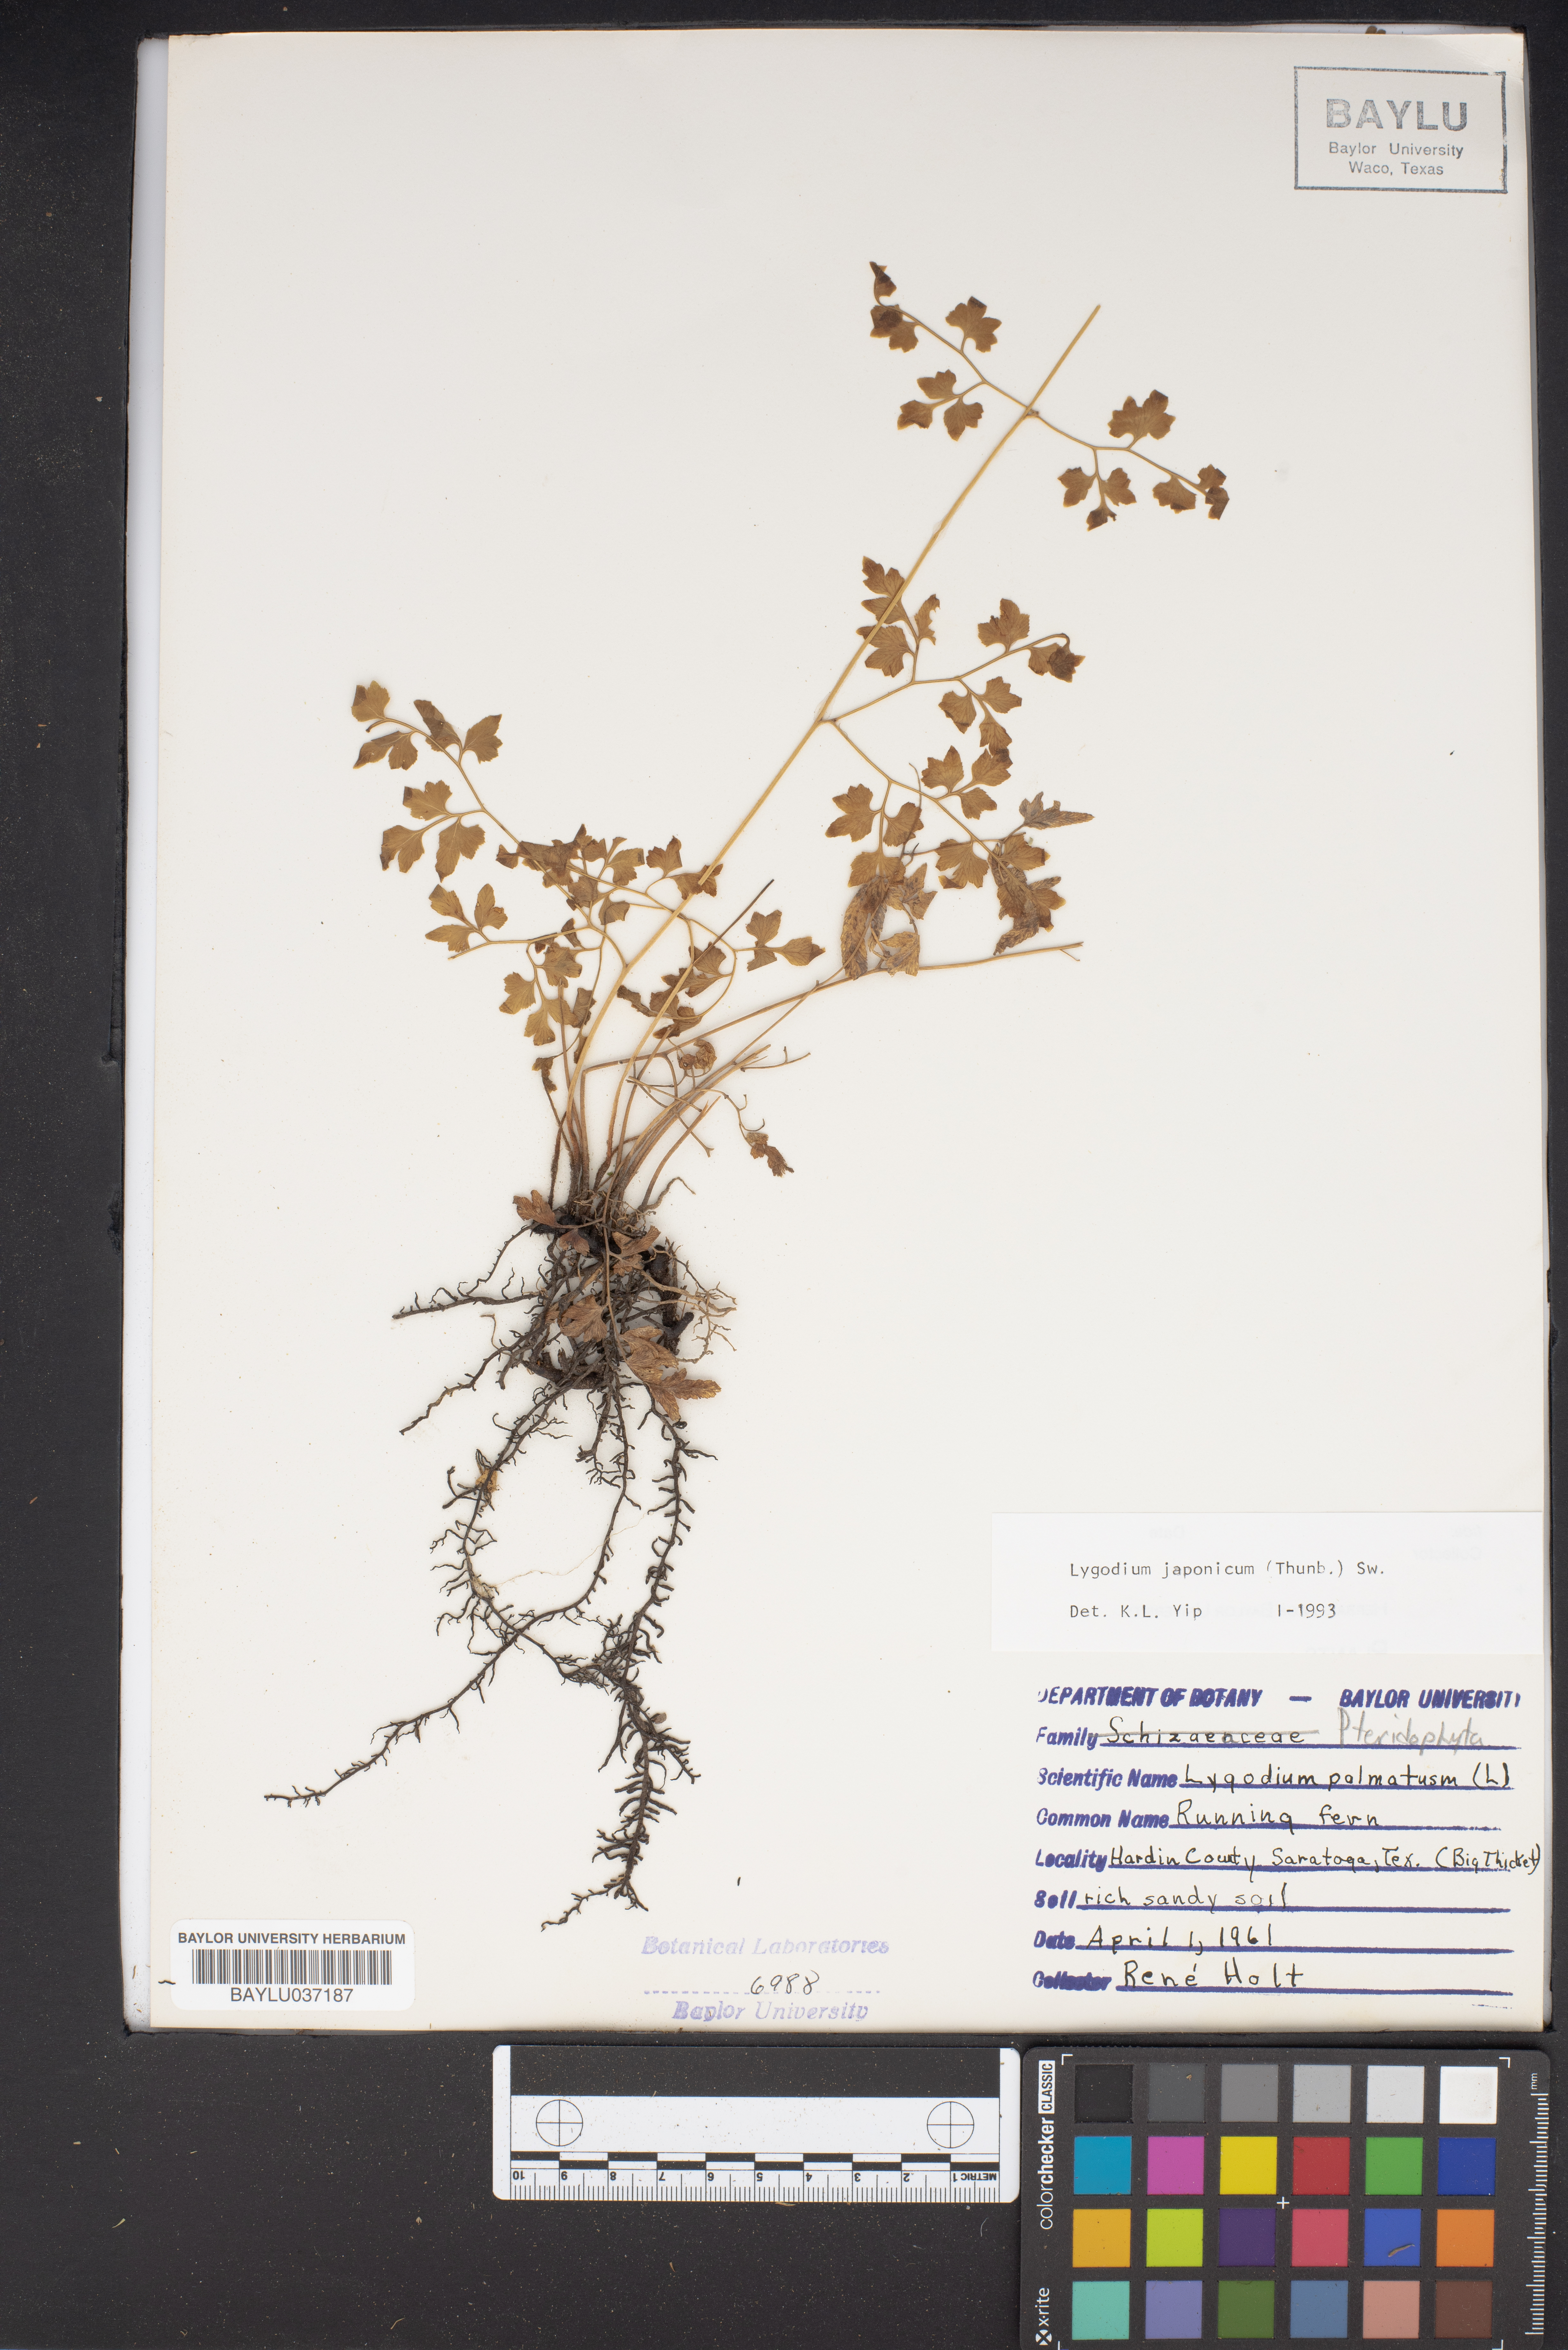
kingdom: Plantae
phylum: Tracheophyta
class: Polypodiopsida
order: Schizaeales
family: Lygodiaceae
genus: Lygodium
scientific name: Lygodium japonicum
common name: Japanese climbing fern
